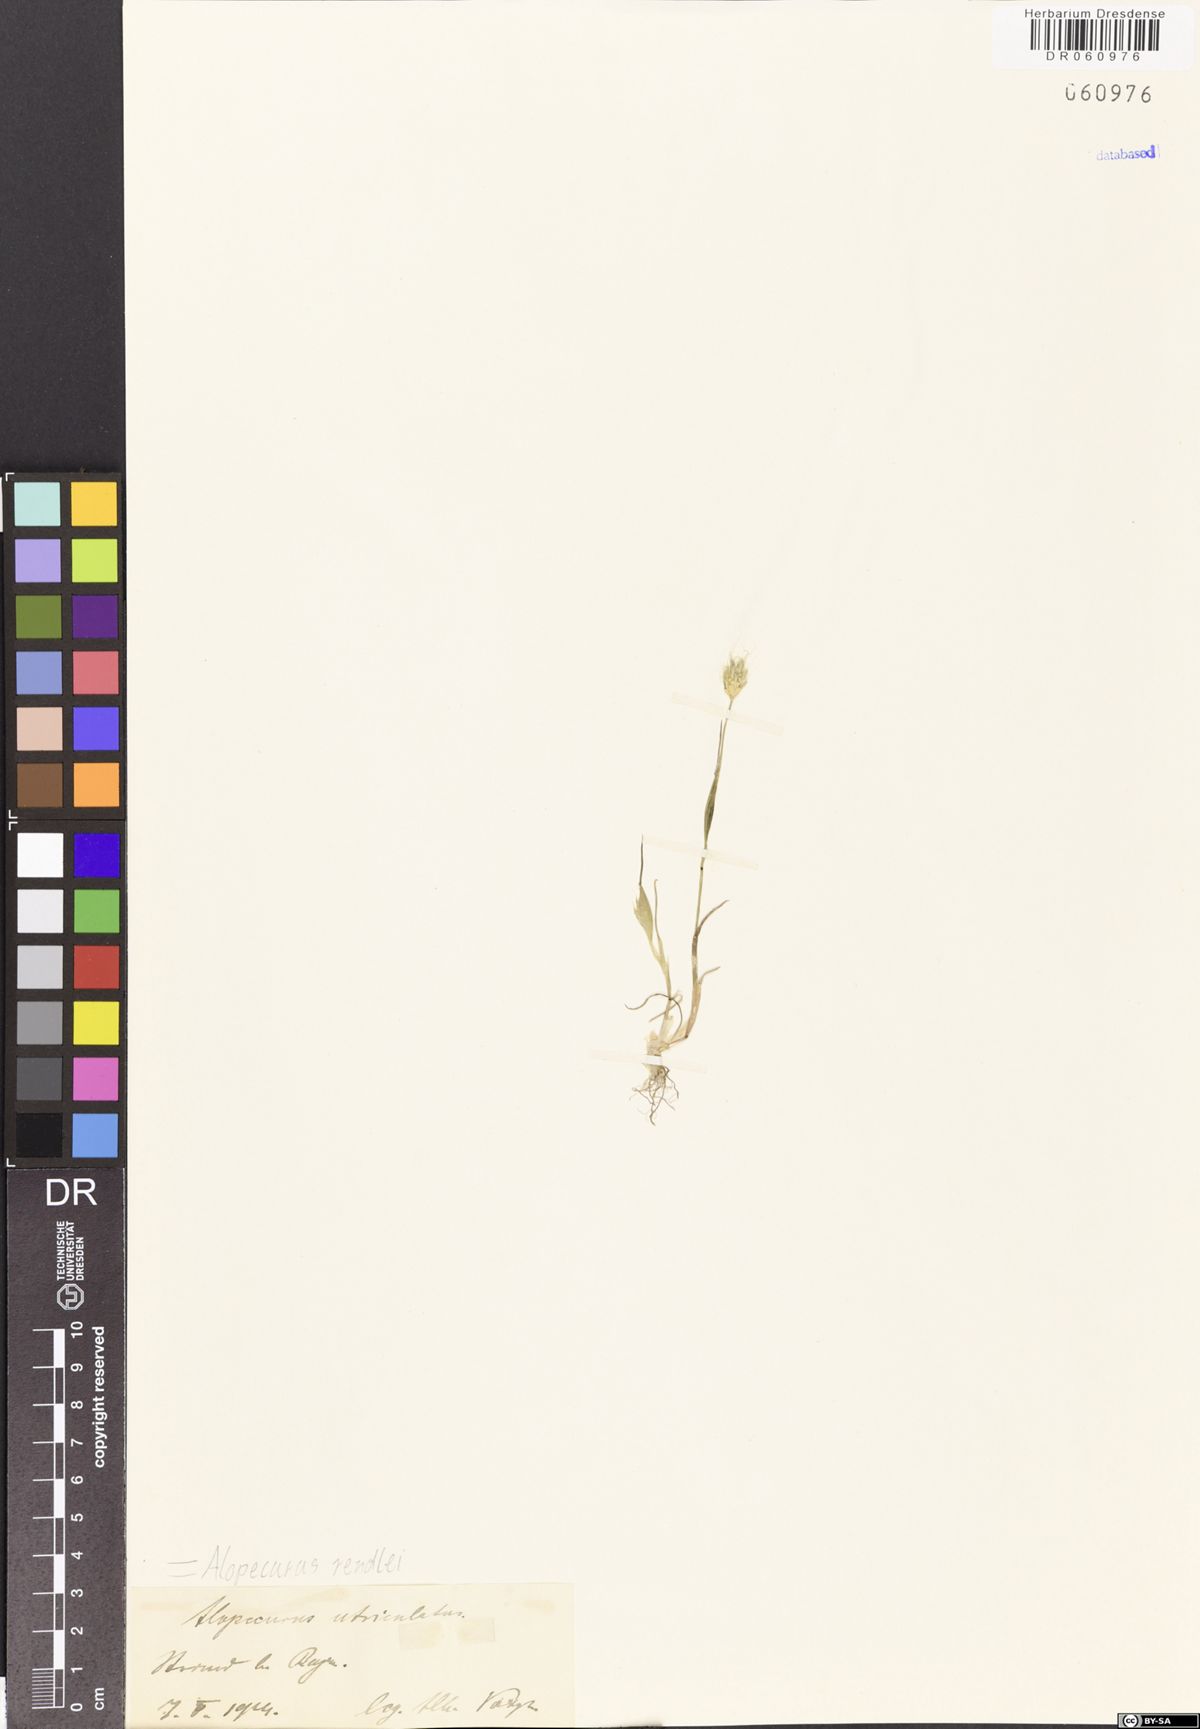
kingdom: Plantae
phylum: Tracheophyta
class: Liliopsida
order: Poales
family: Poaceae
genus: Alopecurus
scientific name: Alopecurus rendlei
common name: Rendle's meadow foxtail
